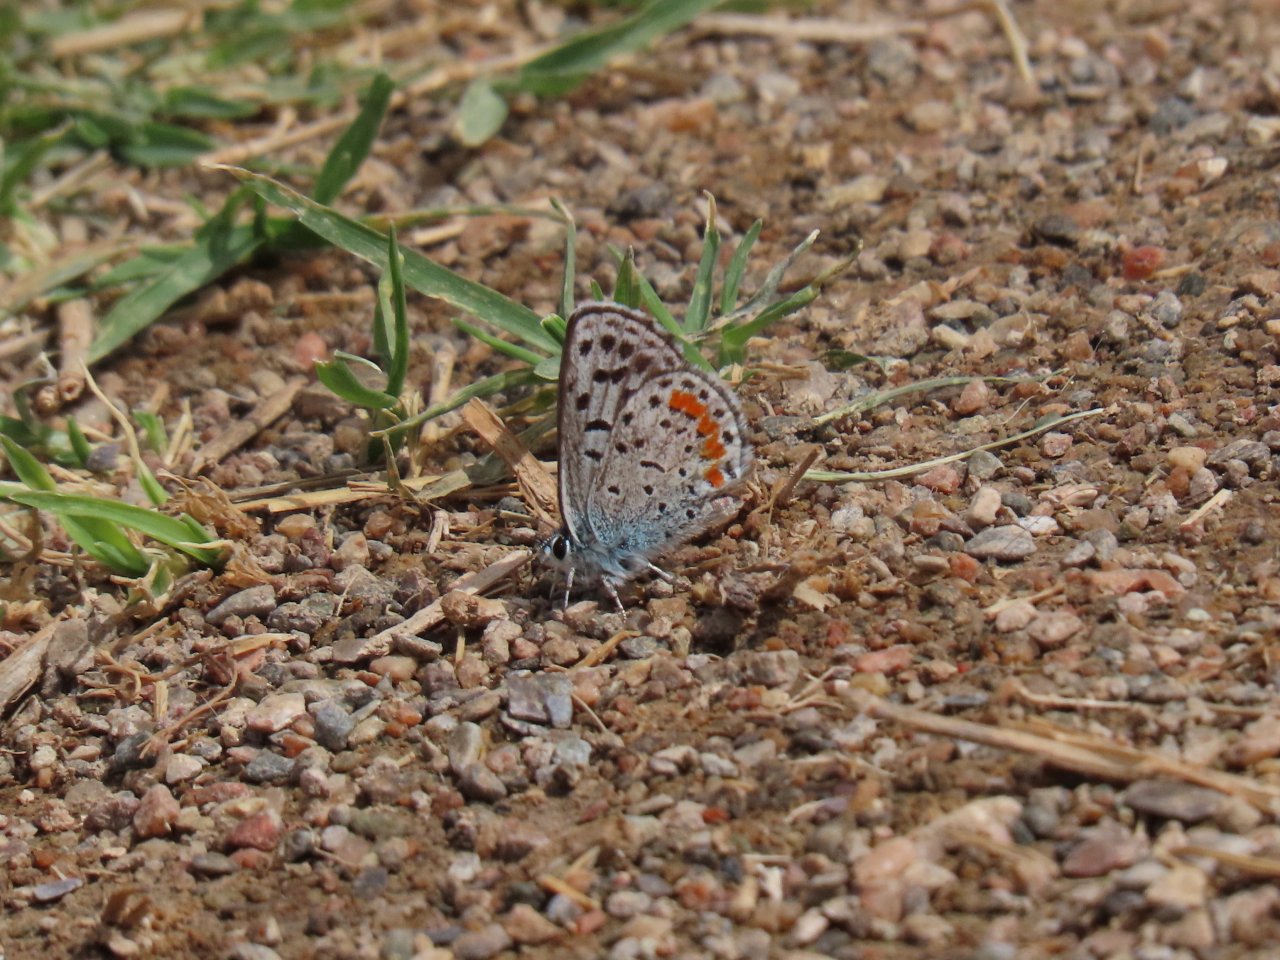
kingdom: Animalia
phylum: Arthropoda
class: Insecta
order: Lepidoptera
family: Lycaenidae
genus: Philotes
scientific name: Philotes bernardino
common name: Bernardino Blue
